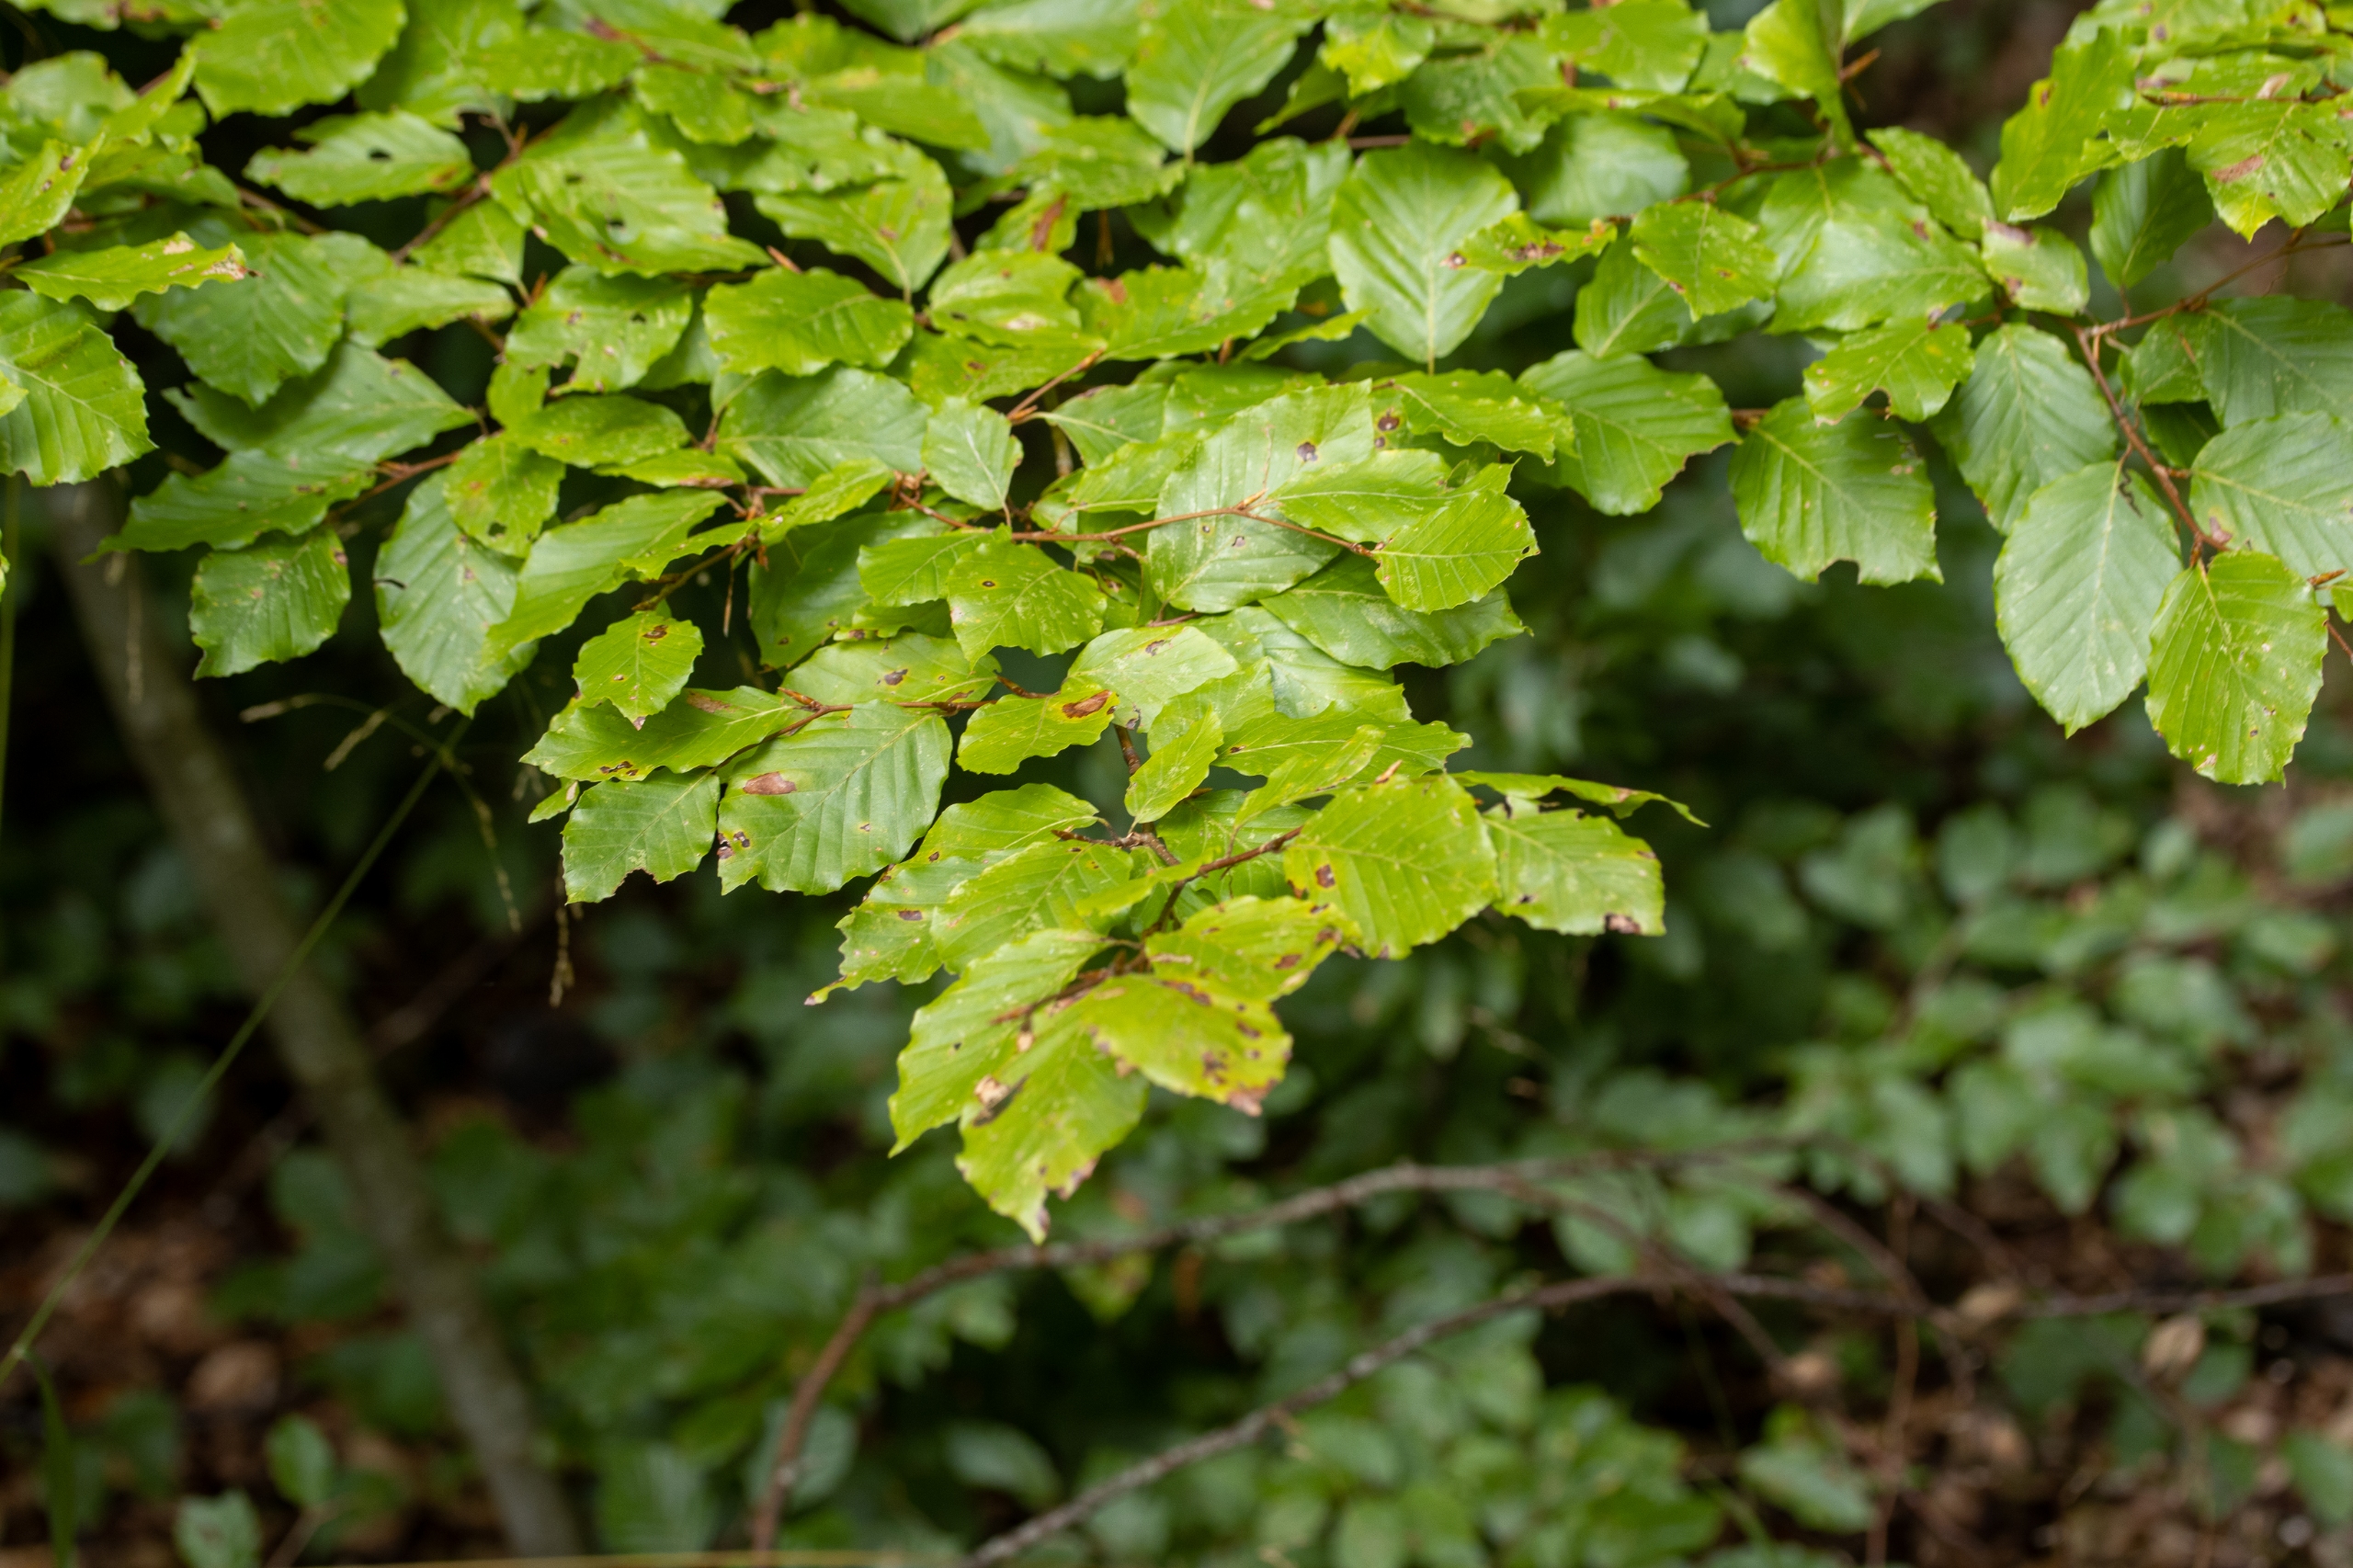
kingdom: Plantae
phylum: Tracheophyta
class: Magnoliopsida
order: Fagales
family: Fagaceae
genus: Fagus
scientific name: Fagus sylvatica
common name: Bøg
